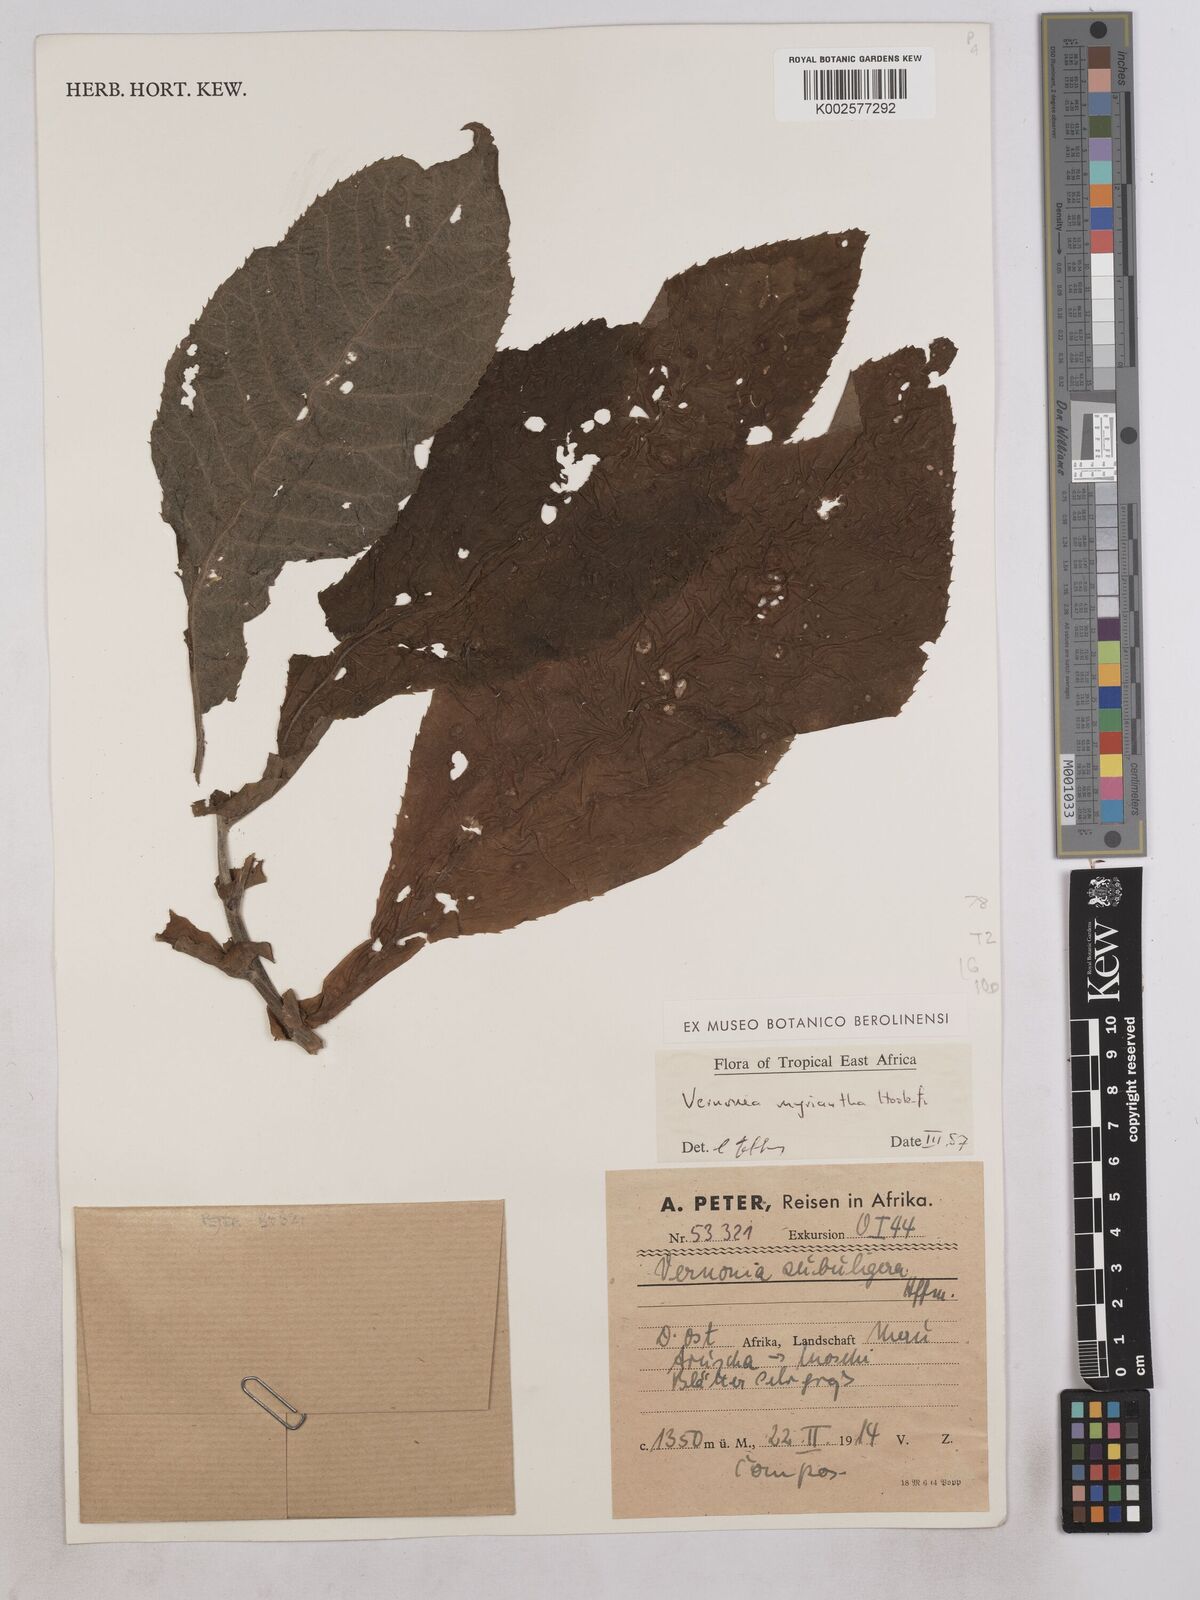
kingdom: Plantae
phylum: Tracheophyta
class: Magnoliopsida
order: Asterales
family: Asteraceae
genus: Gymnanthemum
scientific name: Gymnanthemum myrianthum
